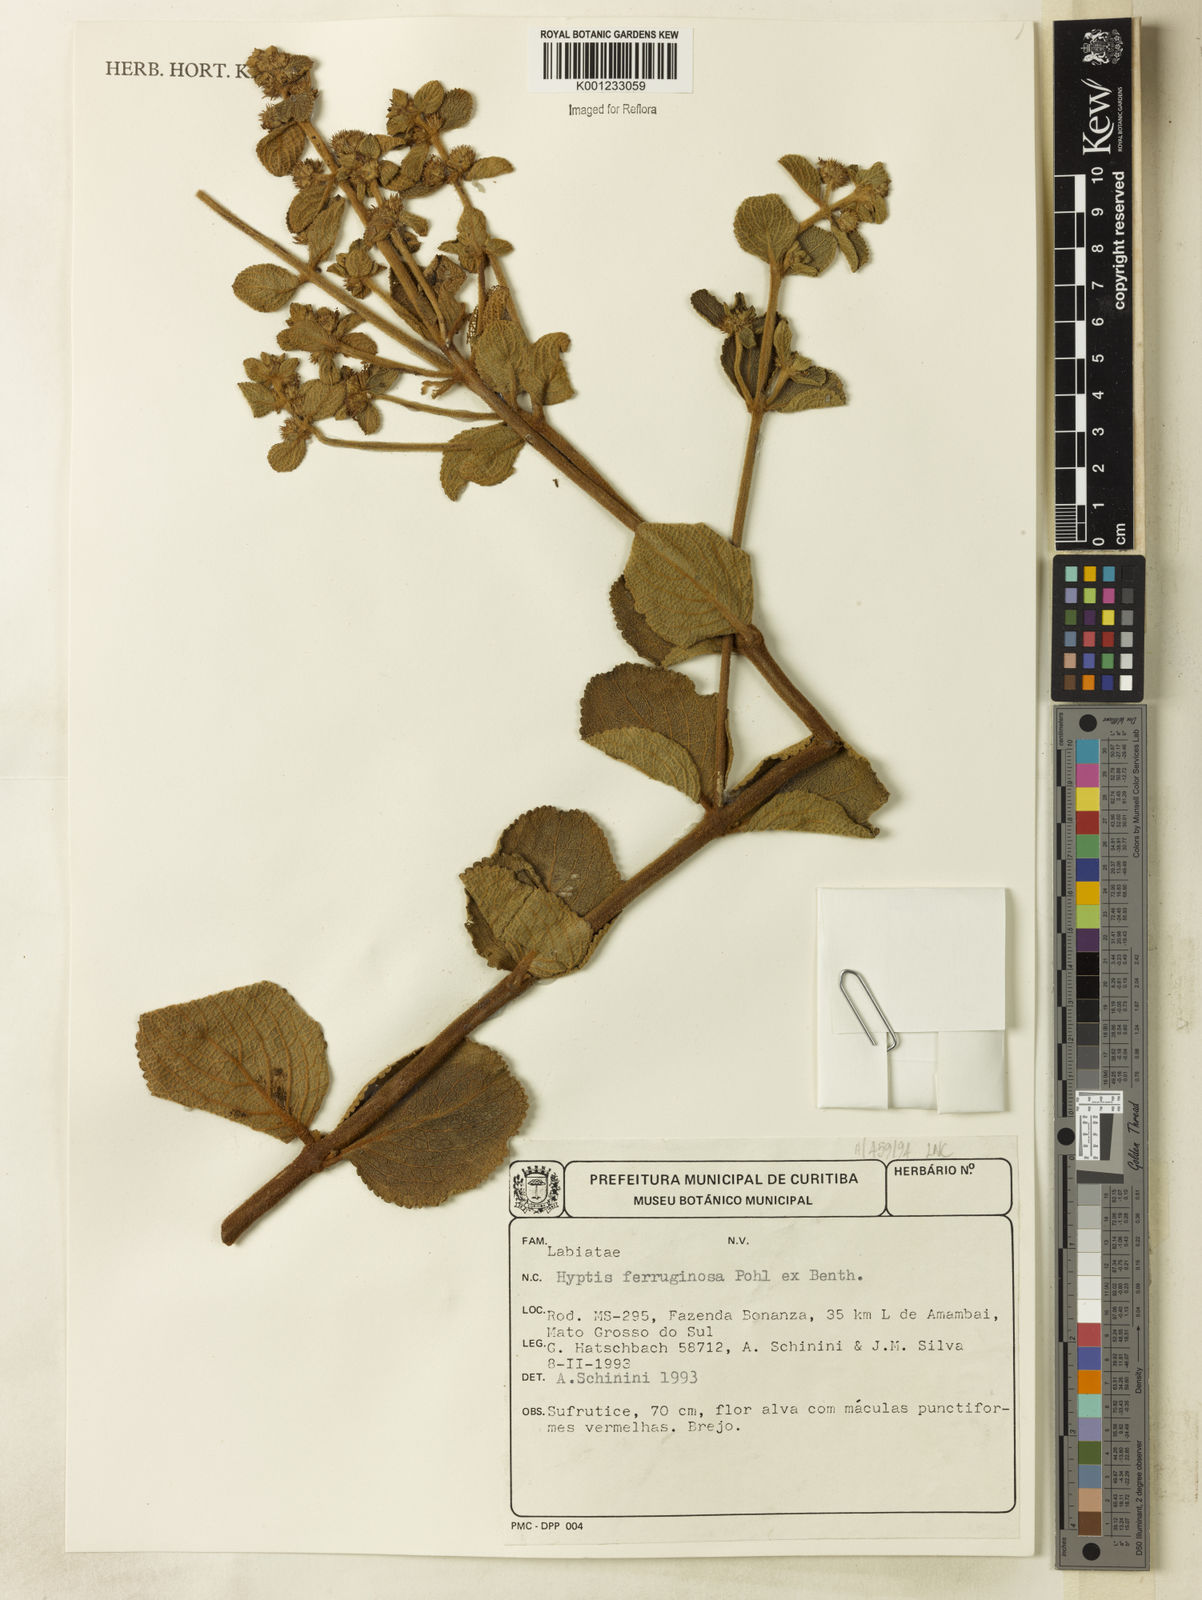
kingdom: Plantae
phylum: Tracheophyta
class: Magnoliopsida
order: Lamiales
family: Lamiaceae
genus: Hyptis
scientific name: Hyptis ferruginosa
